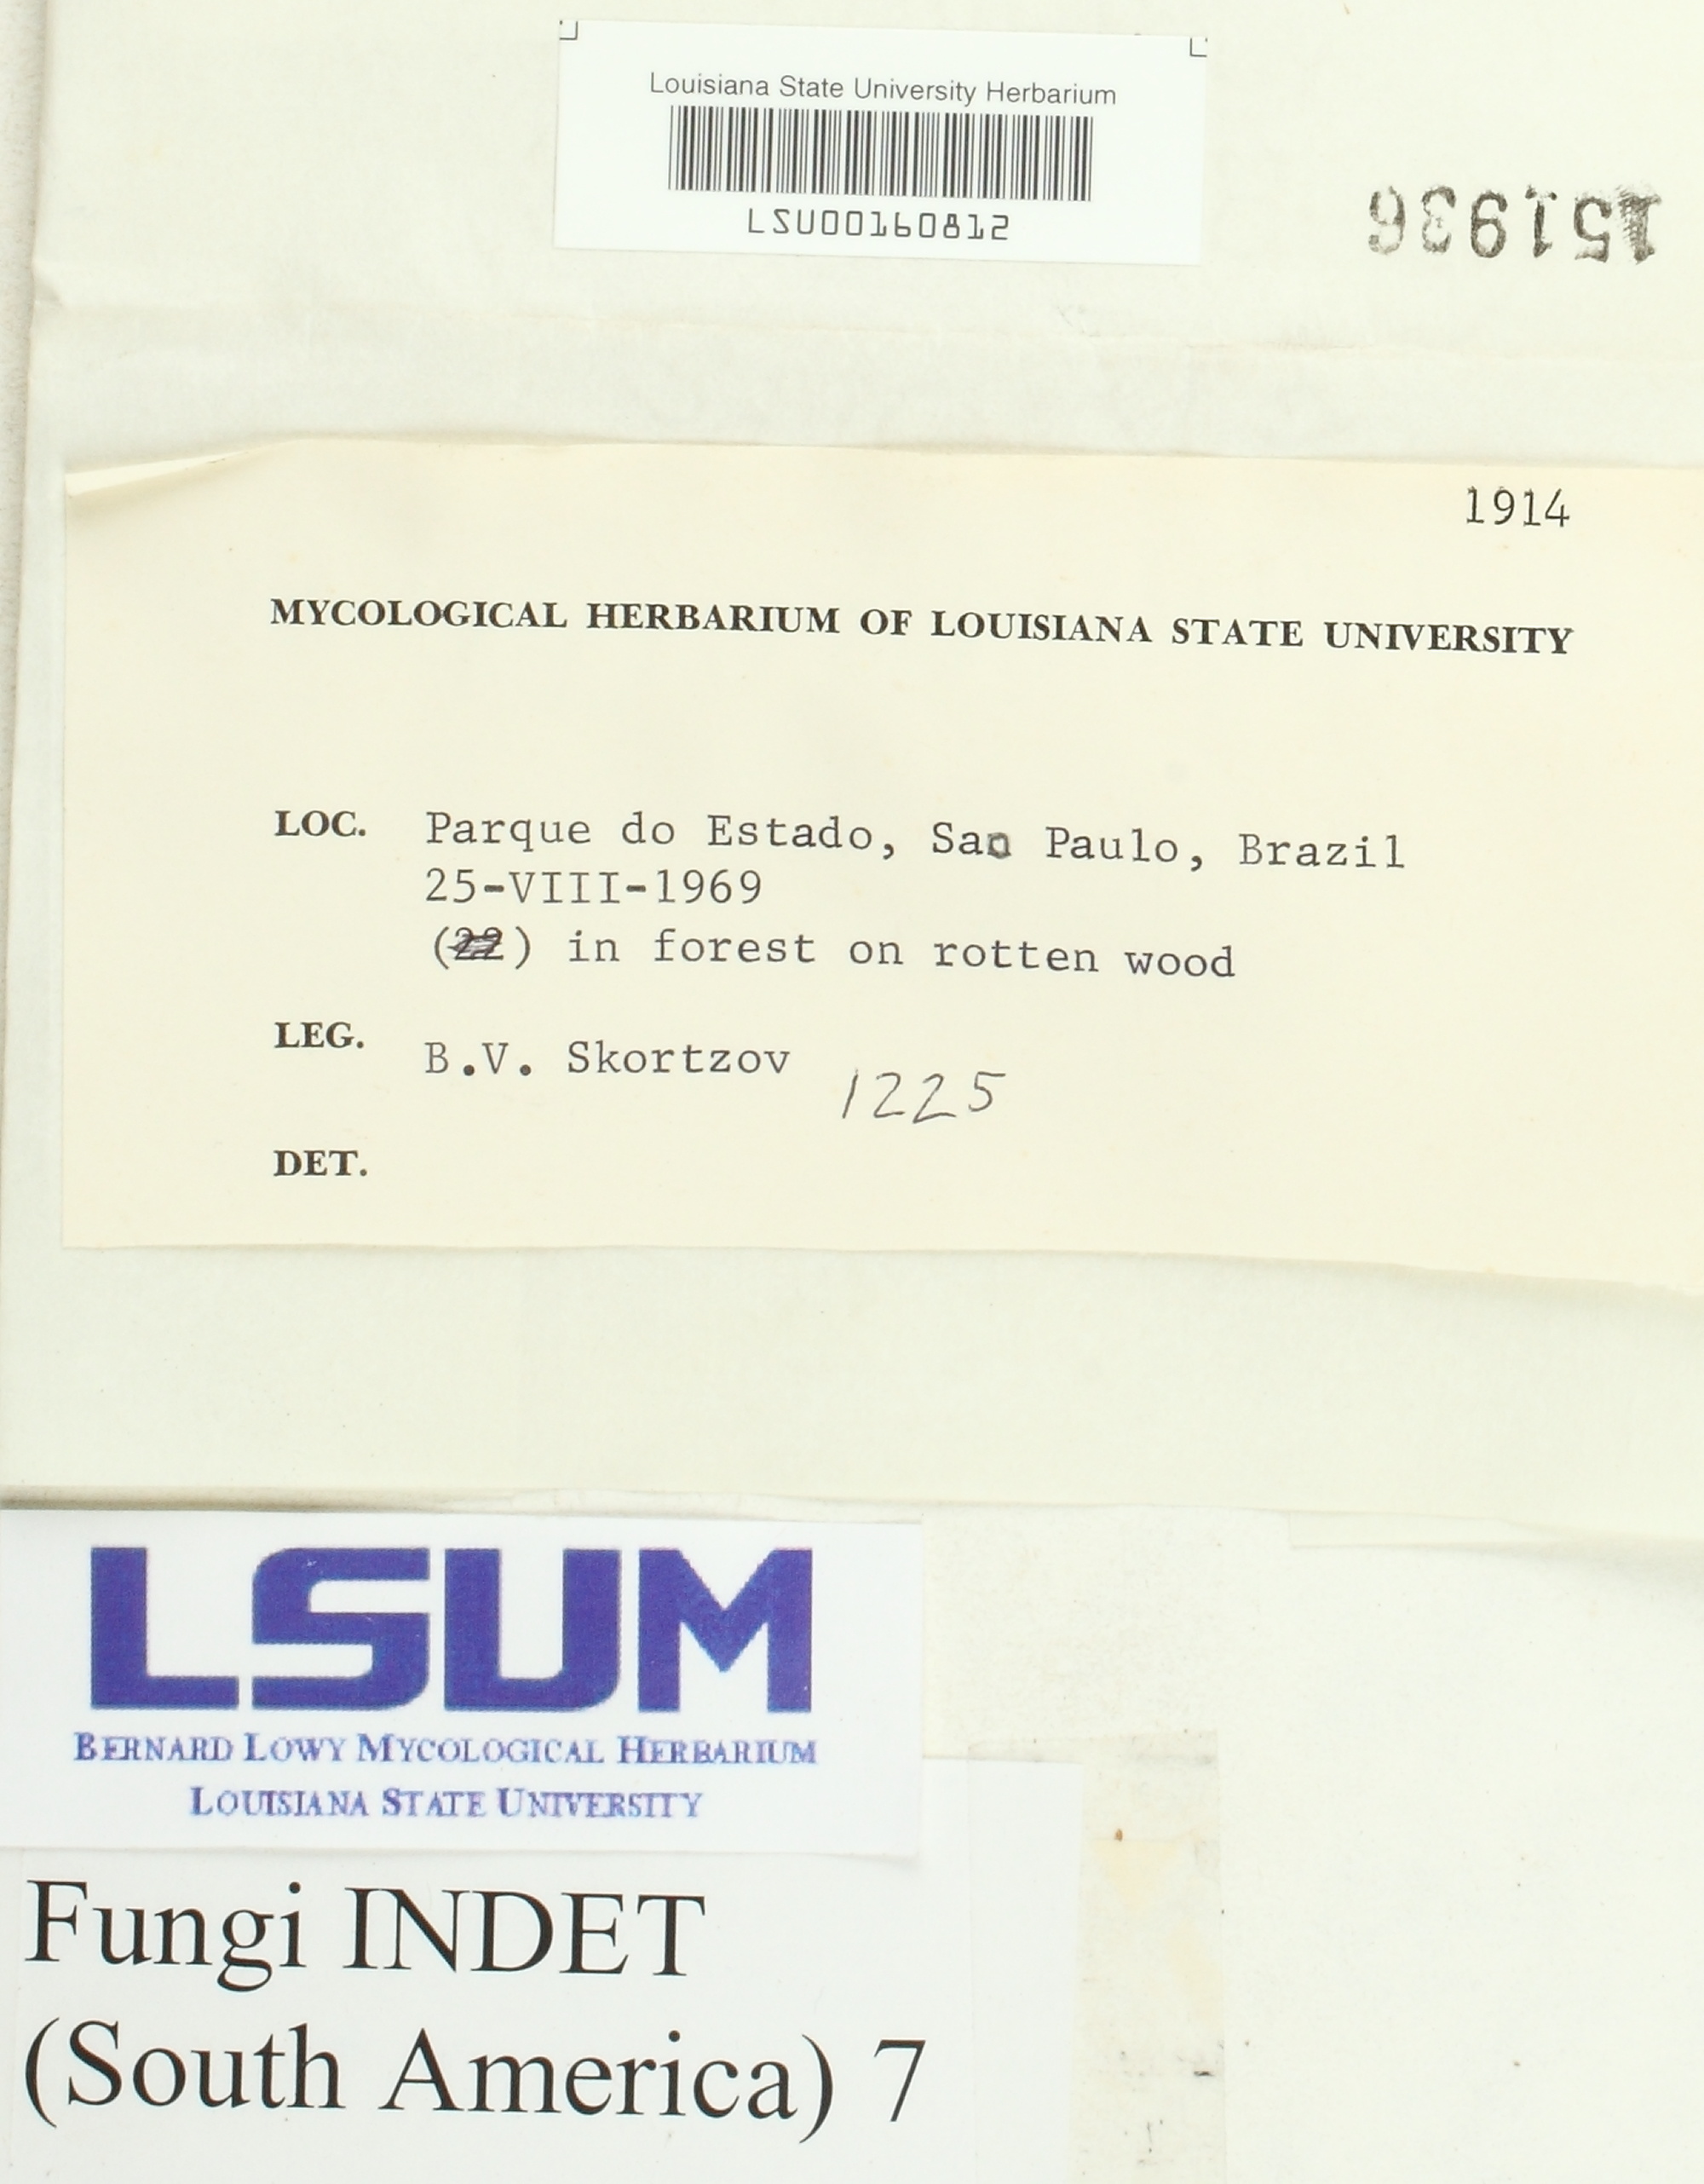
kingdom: Fungi
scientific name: Fungi
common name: Fungi
